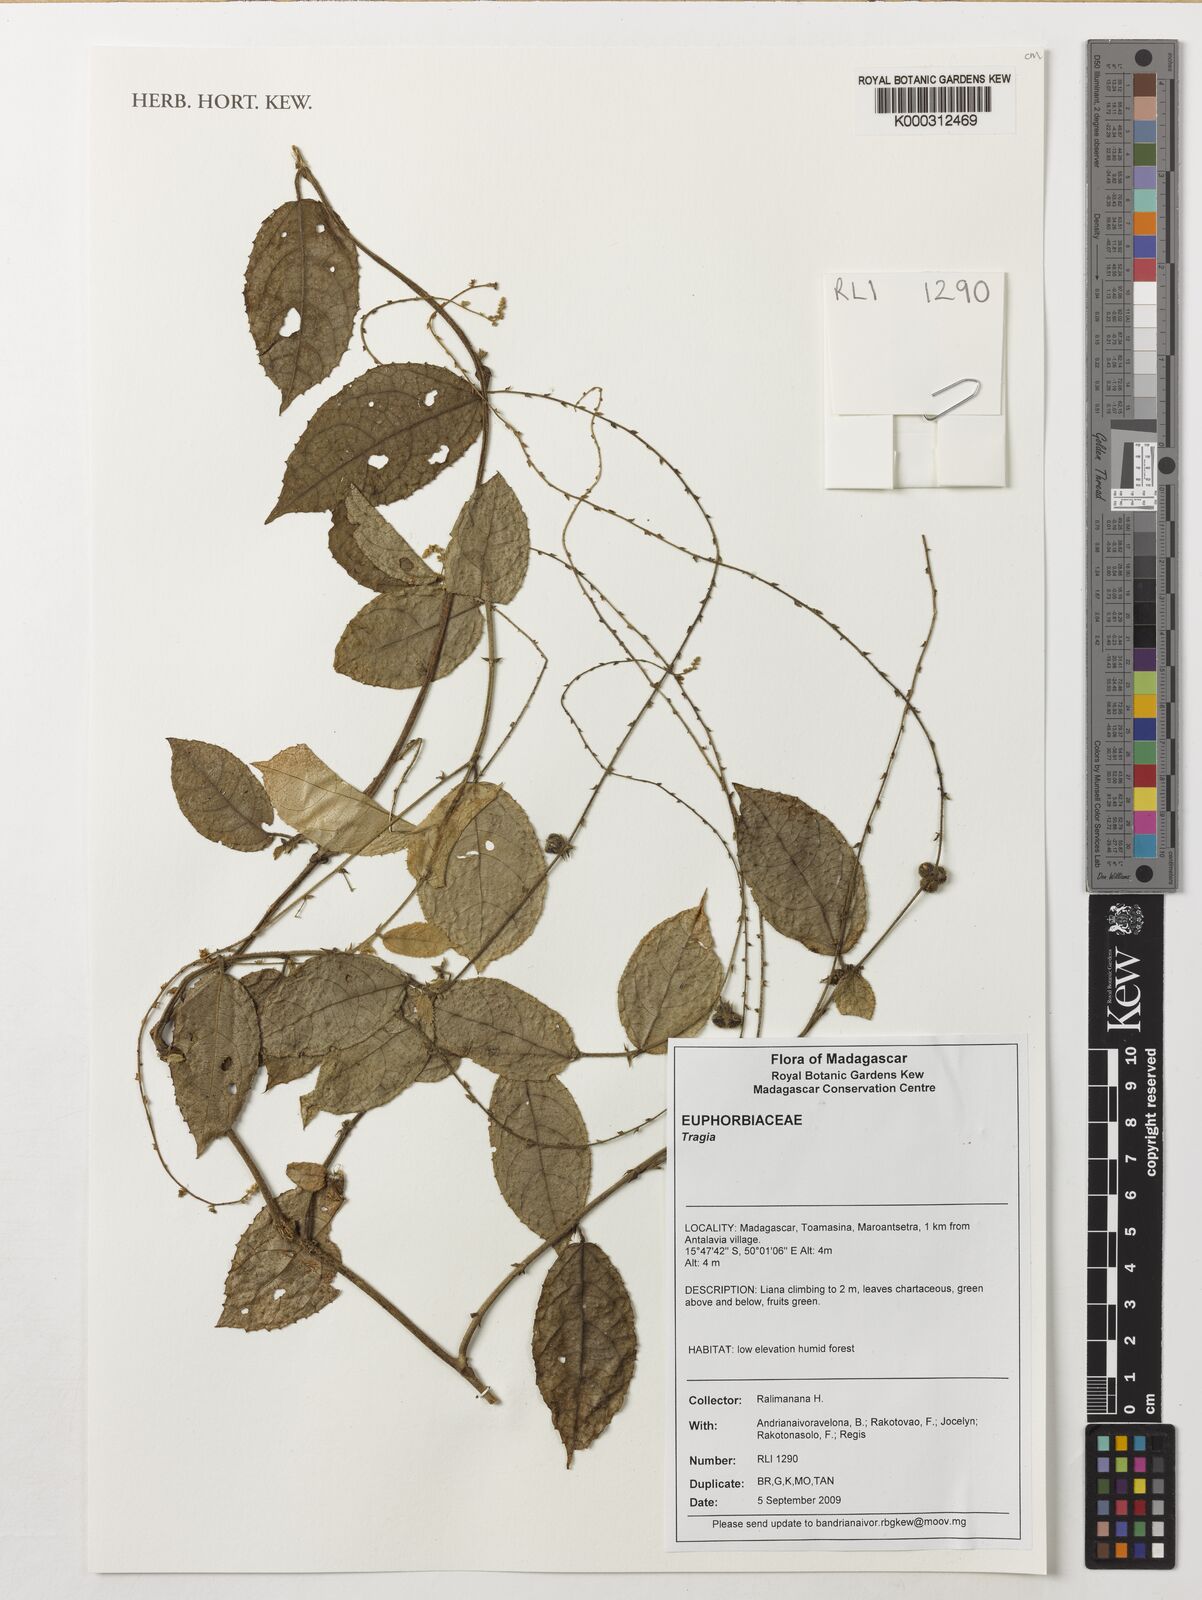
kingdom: Plantae
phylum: Tracheophyta
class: Magnoliopsida
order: Malpighiales
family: Euphorbiaceae
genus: Tragia
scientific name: Tragia
